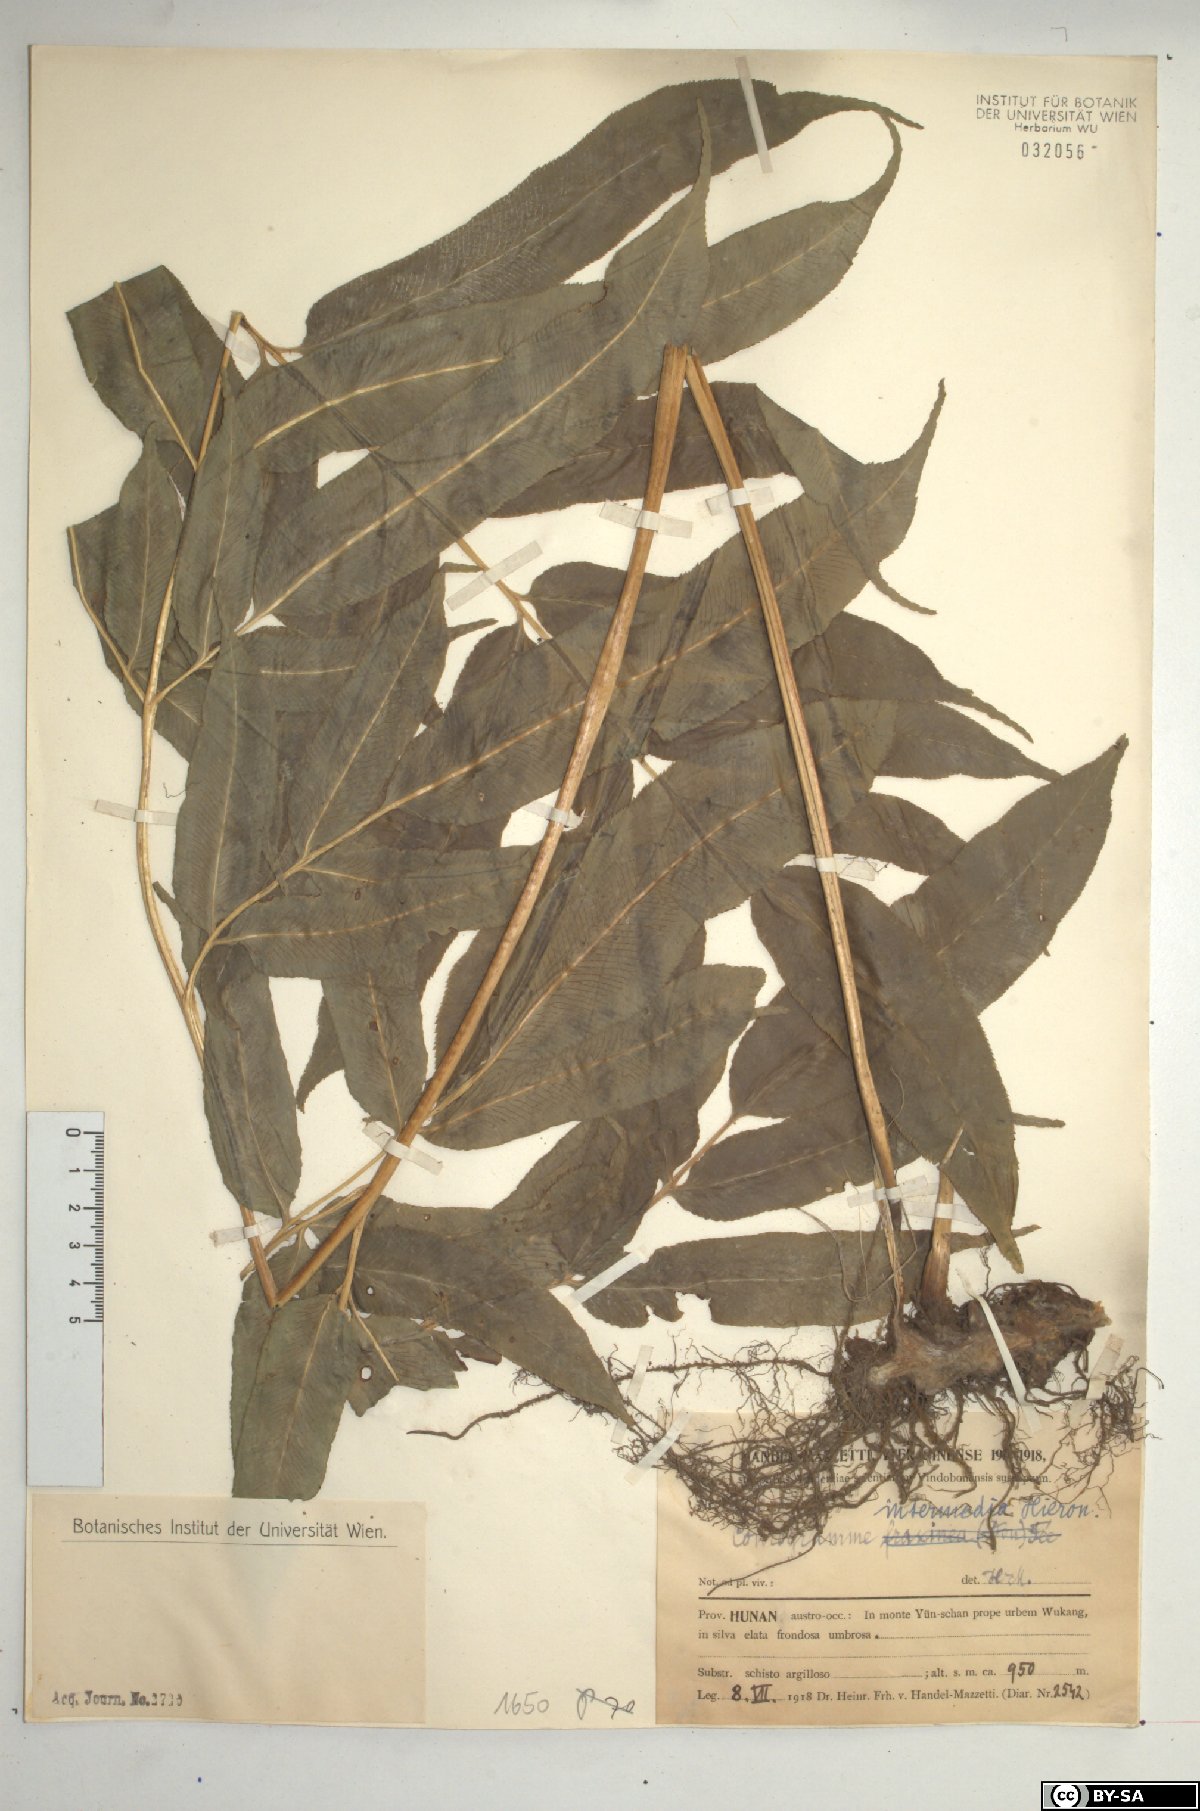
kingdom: Plantae
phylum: Tracheophyta
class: Polypodiopsida
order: Polypodiales
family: Pteridaceae
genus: Coniogramme
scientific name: Coniogramme intermedia
